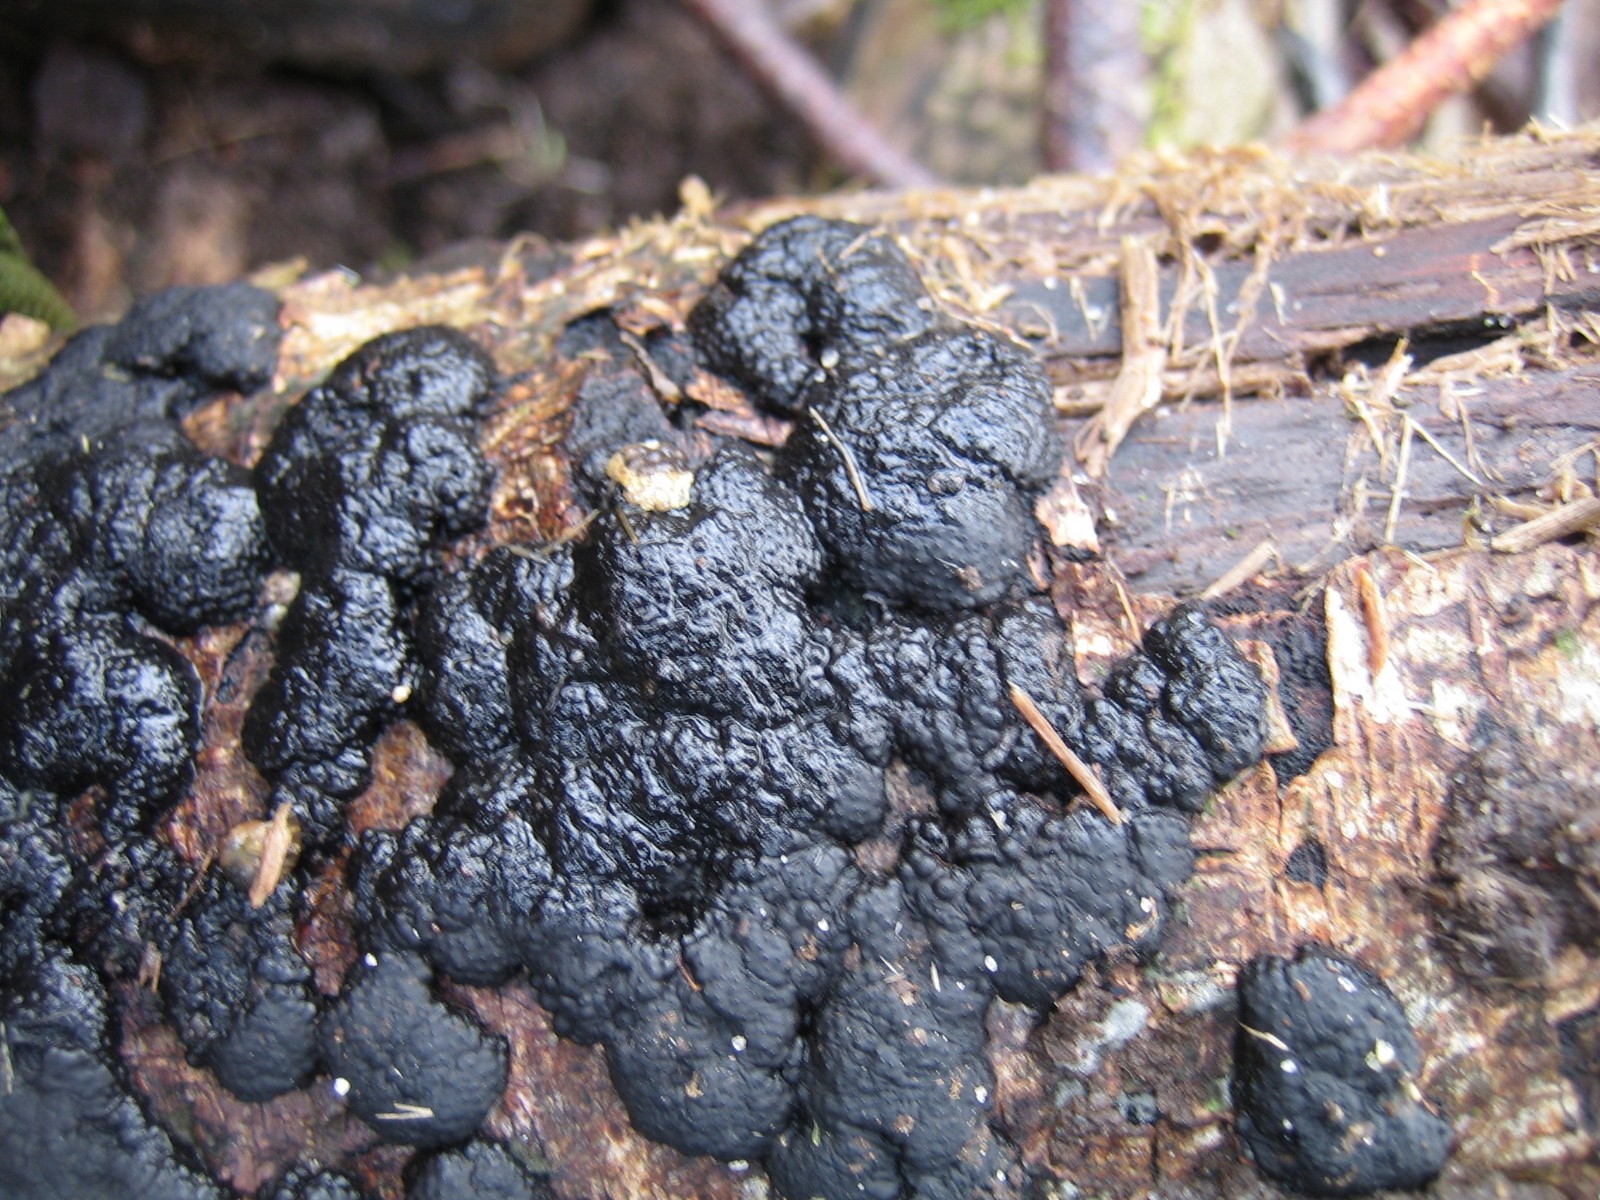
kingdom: Fungi
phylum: Ascomycota
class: Sordariomycetes
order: Xylariales
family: Hypoxylaceae
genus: Jackrogersella
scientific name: Jackrogersella multiformis
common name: foranderlig kulbær
